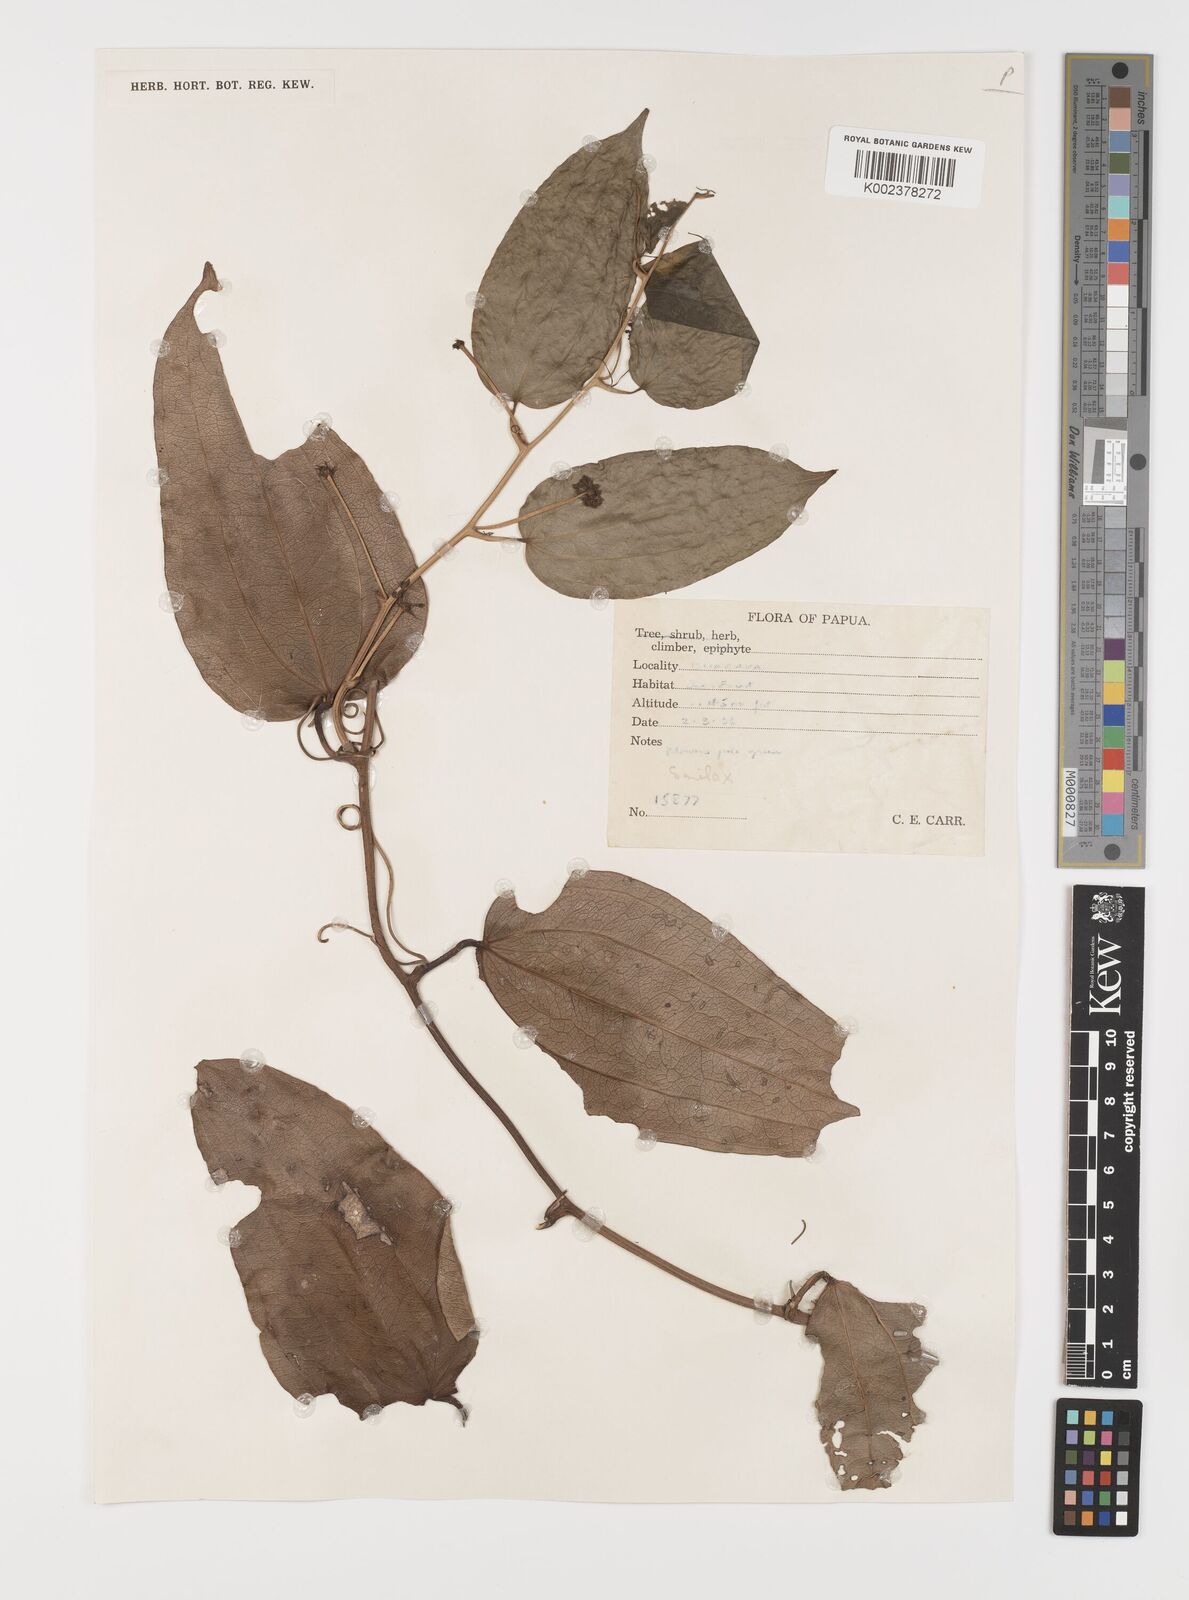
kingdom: Plantae
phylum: Tracheophyta
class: Liliopsida
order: Liliales
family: Smilacaceae
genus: Smilax
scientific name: Smilax
